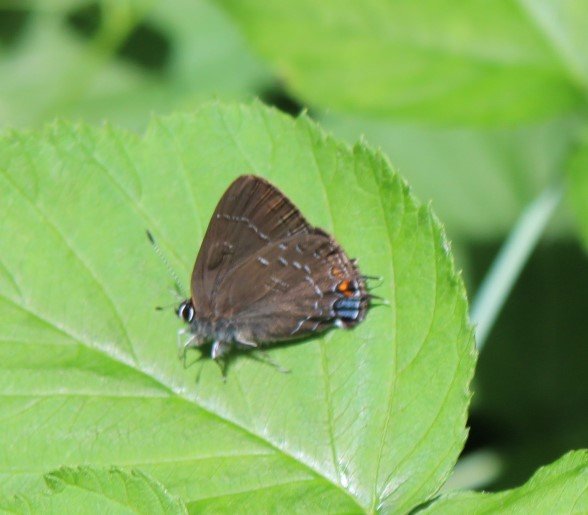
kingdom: Animalia
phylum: Arthropoda
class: Insecta
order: Lepidoptera
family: Lycaenidae
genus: Satyrium
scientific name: Satyrium calanus
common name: Banded Hairstreak
